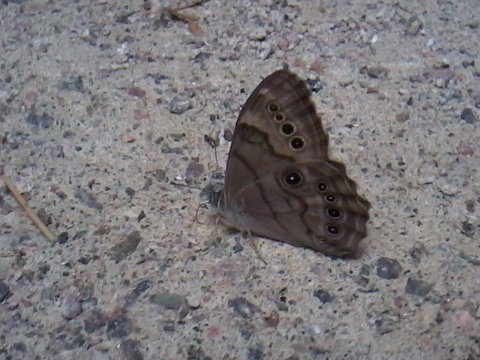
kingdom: Animalia
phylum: Arthropoda
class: Insecta
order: Lepidoptera
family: Nymphalidae
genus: Lethe
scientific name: Lethe anthedon
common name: Northern Pearly-Eye
